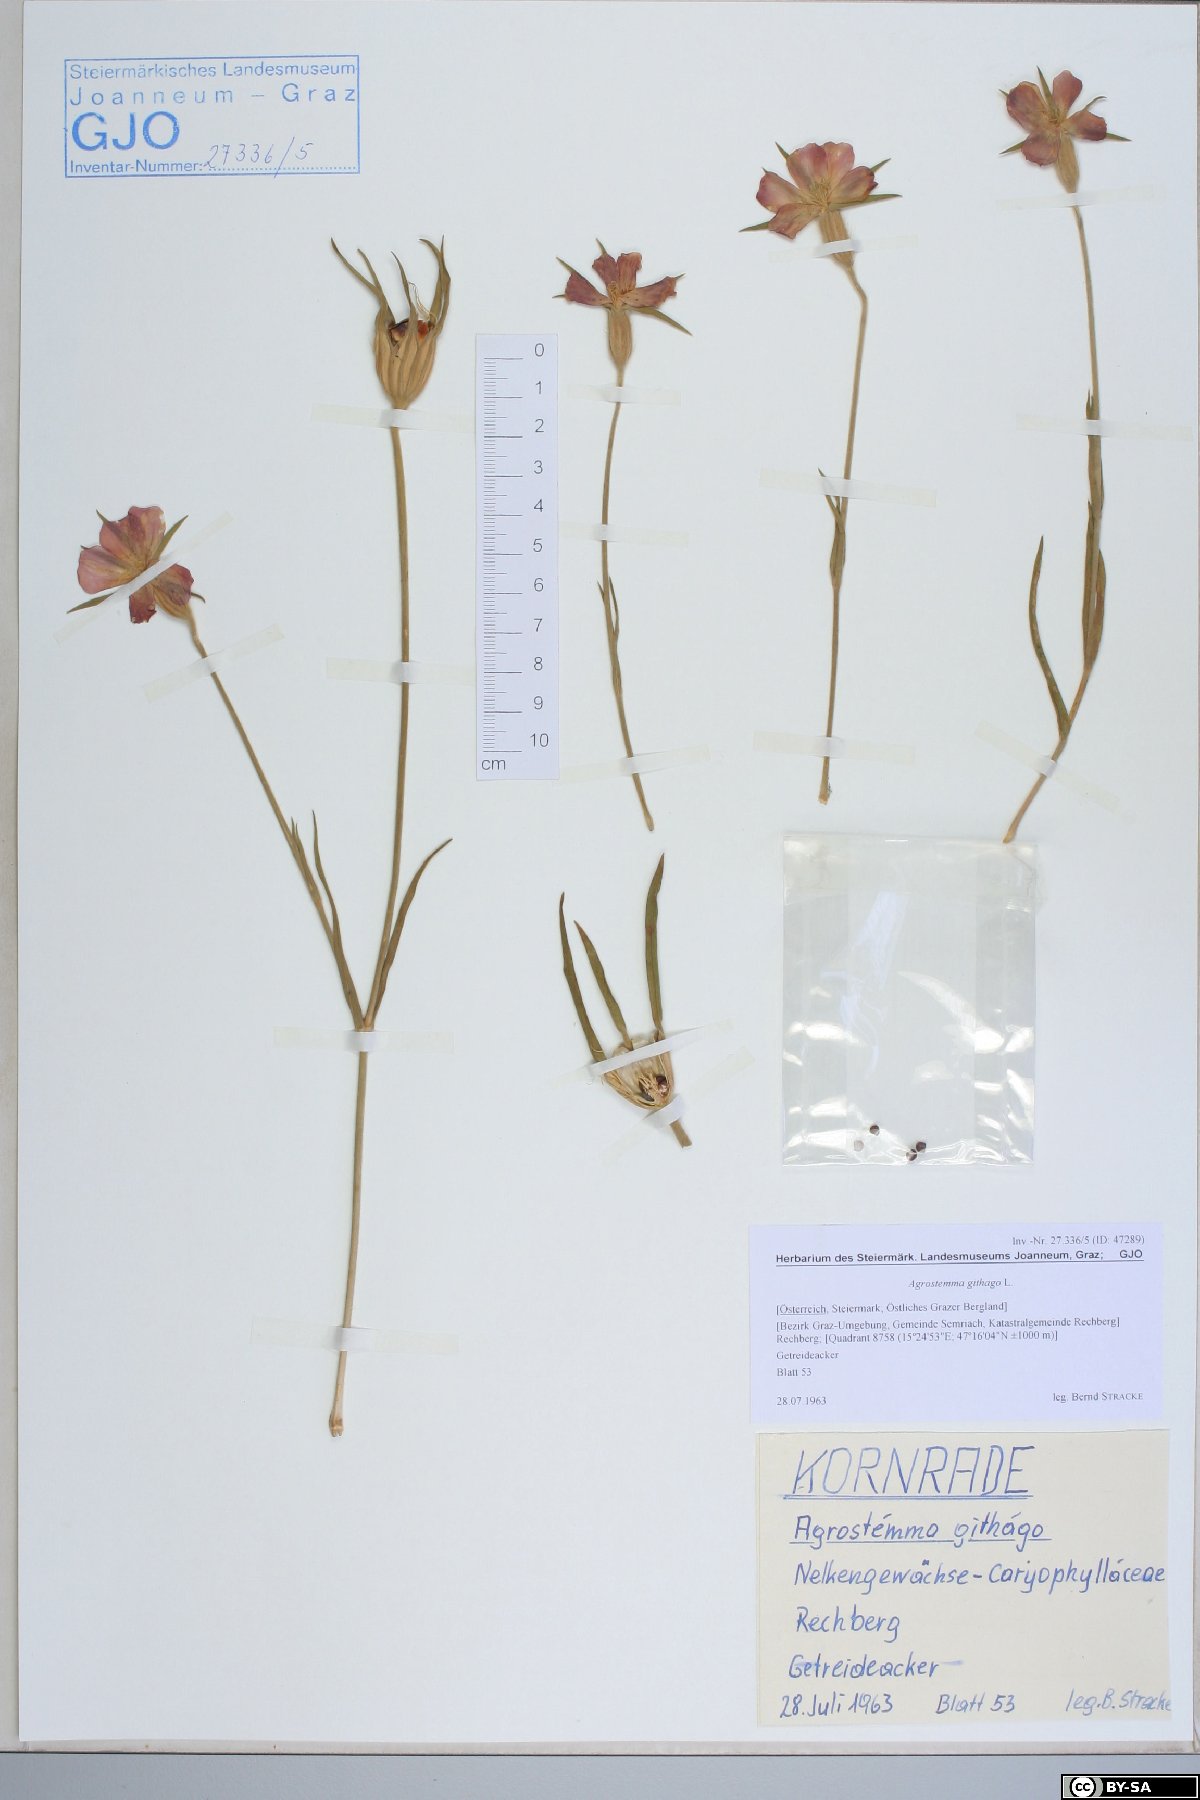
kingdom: Plantae
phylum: Tracheophyta
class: Magnoliopsida
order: Caryophyllales
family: Caryophyllaceae
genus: Agrostemma
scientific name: Agrostemma githago
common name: Common corncockle
